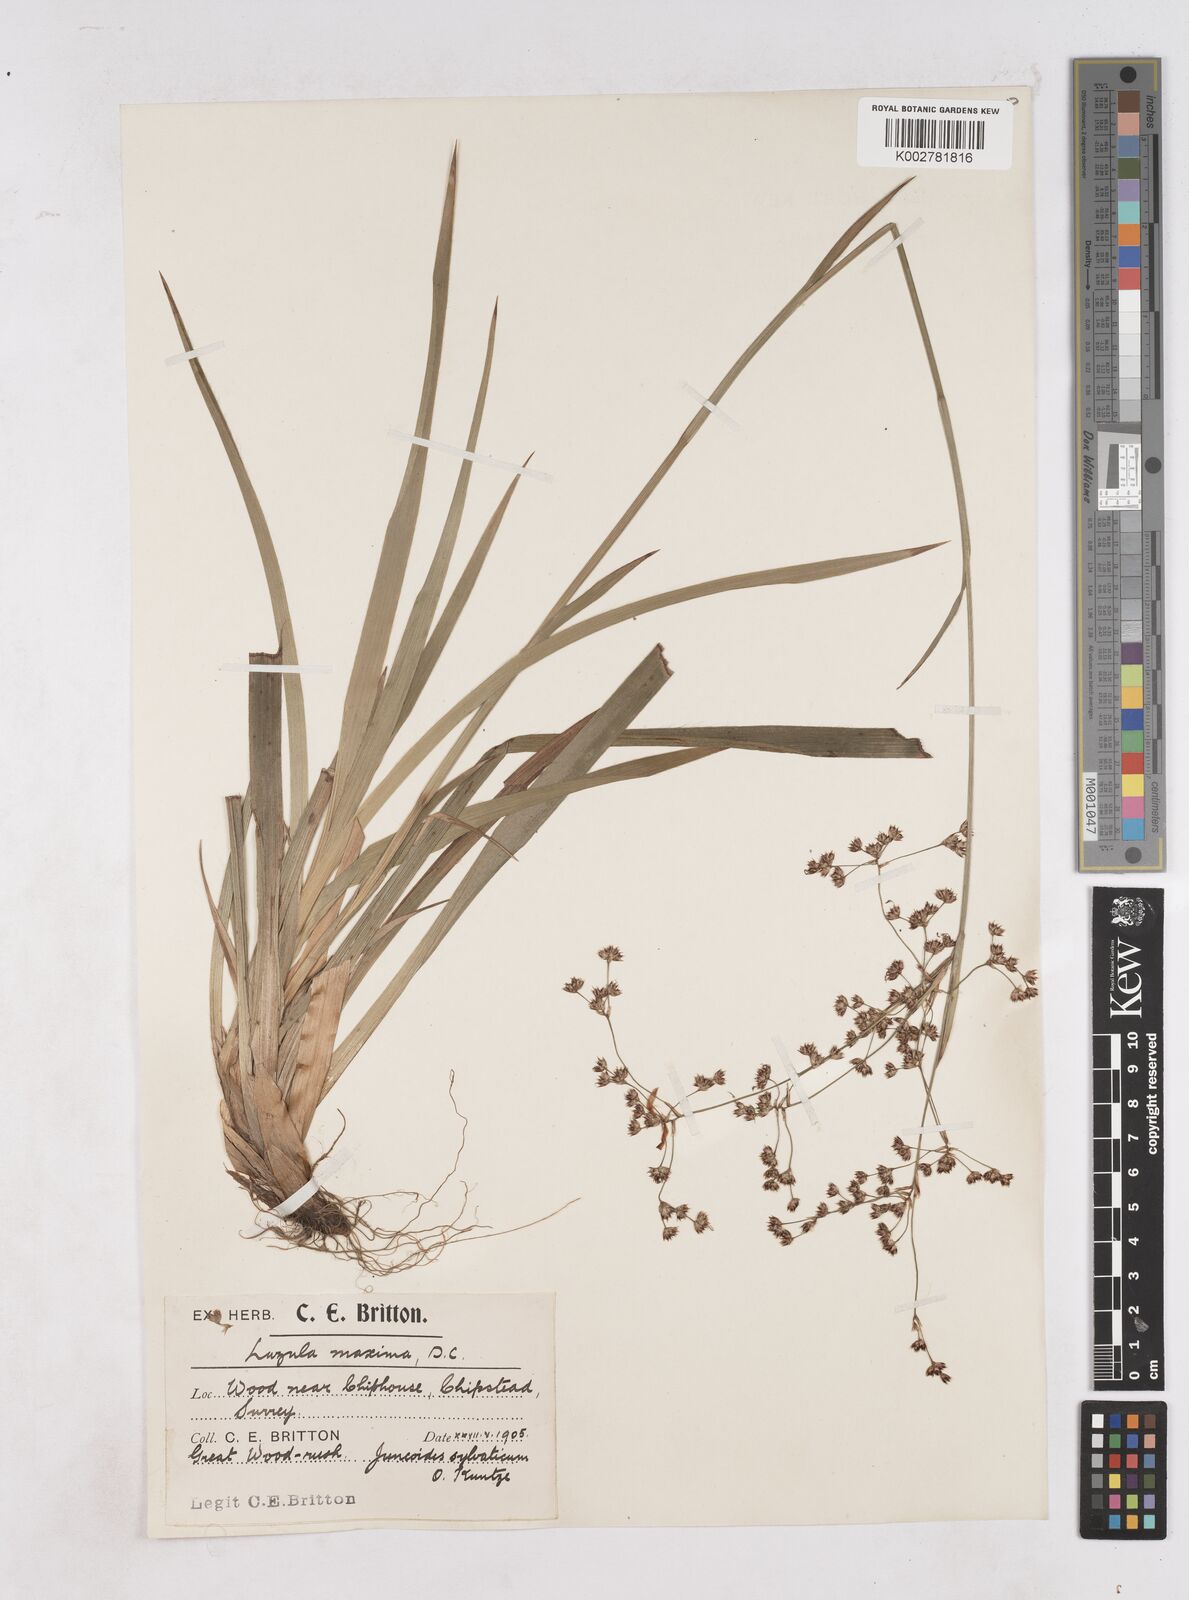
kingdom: Plantae
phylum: Tracheophyta
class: Liliopsida
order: Poales
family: Juncaceae
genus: Luzula
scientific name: Luzula sylvatica
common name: Great wood-rush
